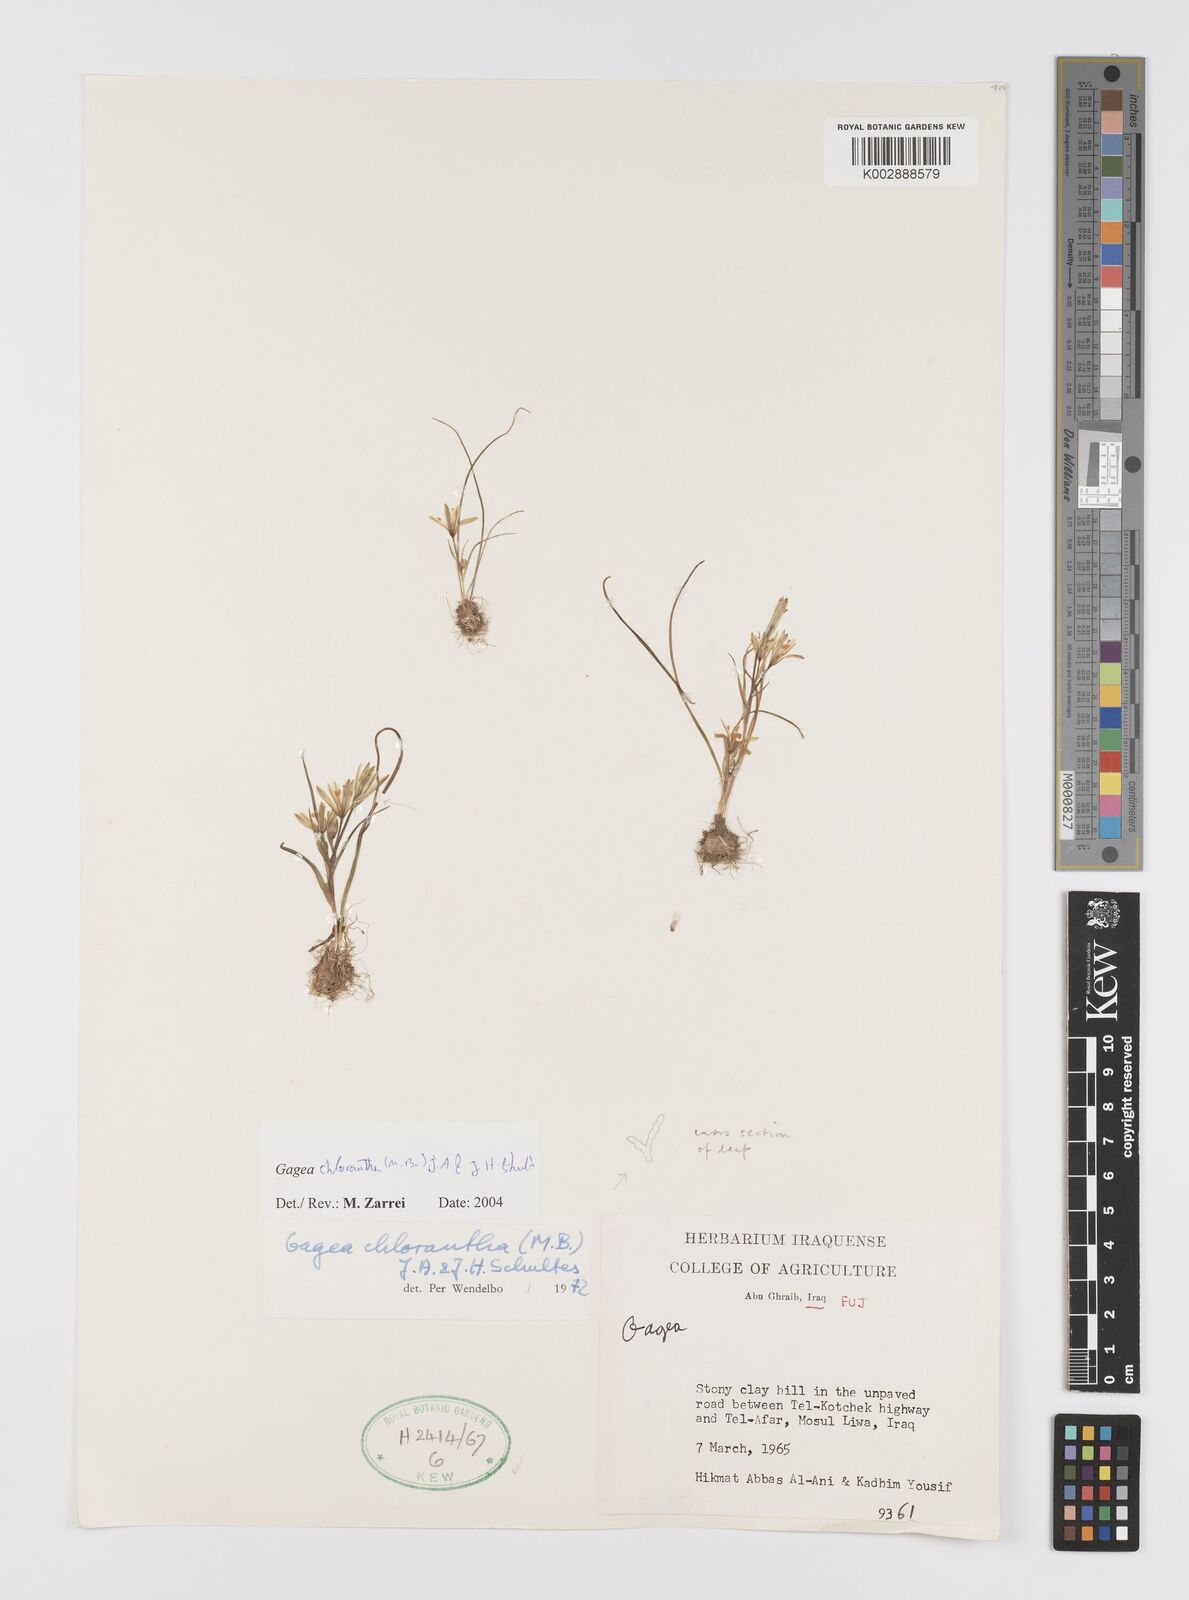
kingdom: Plantae
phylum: Tracheophyta
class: Liliopsida
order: Liliales
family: Liliaceae
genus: Gagea
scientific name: Gagea chlorantha
